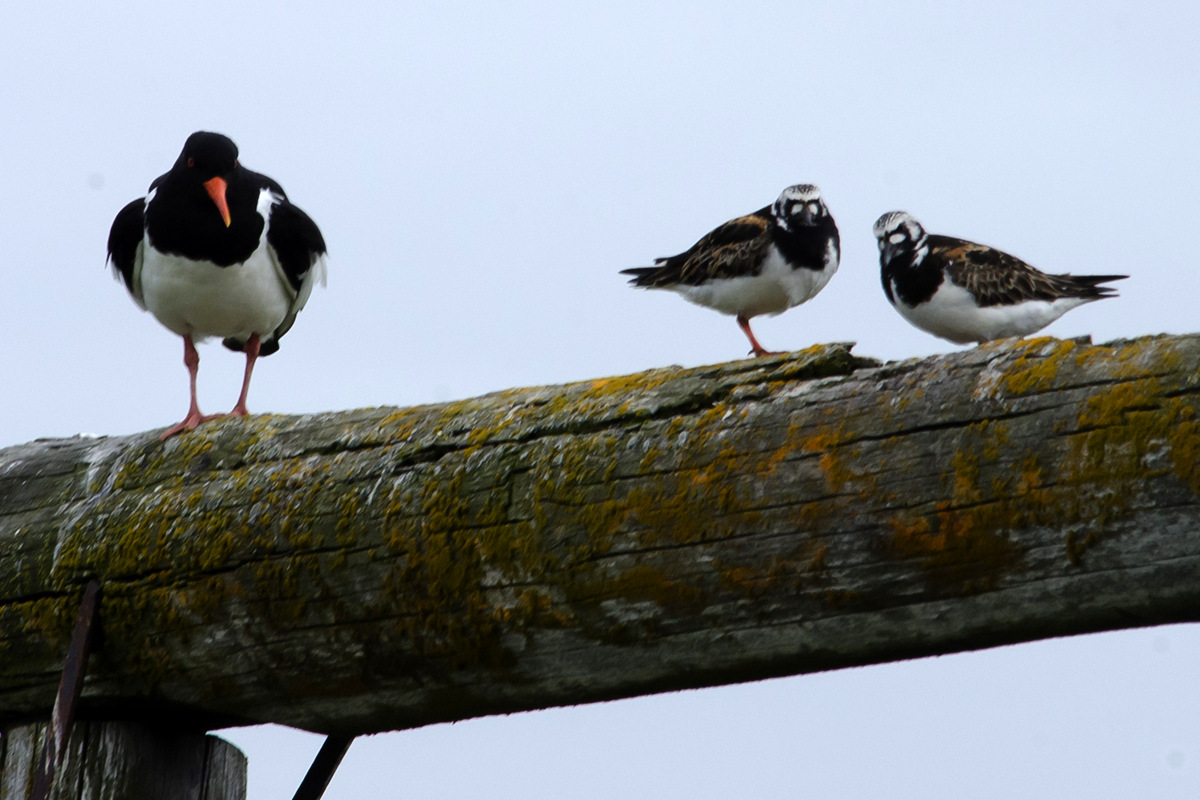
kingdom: Animalia
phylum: Chordata
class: Aves
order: Charadriiformes
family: Scolopacidae
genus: Arenaria
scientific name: Arenaria interpres
